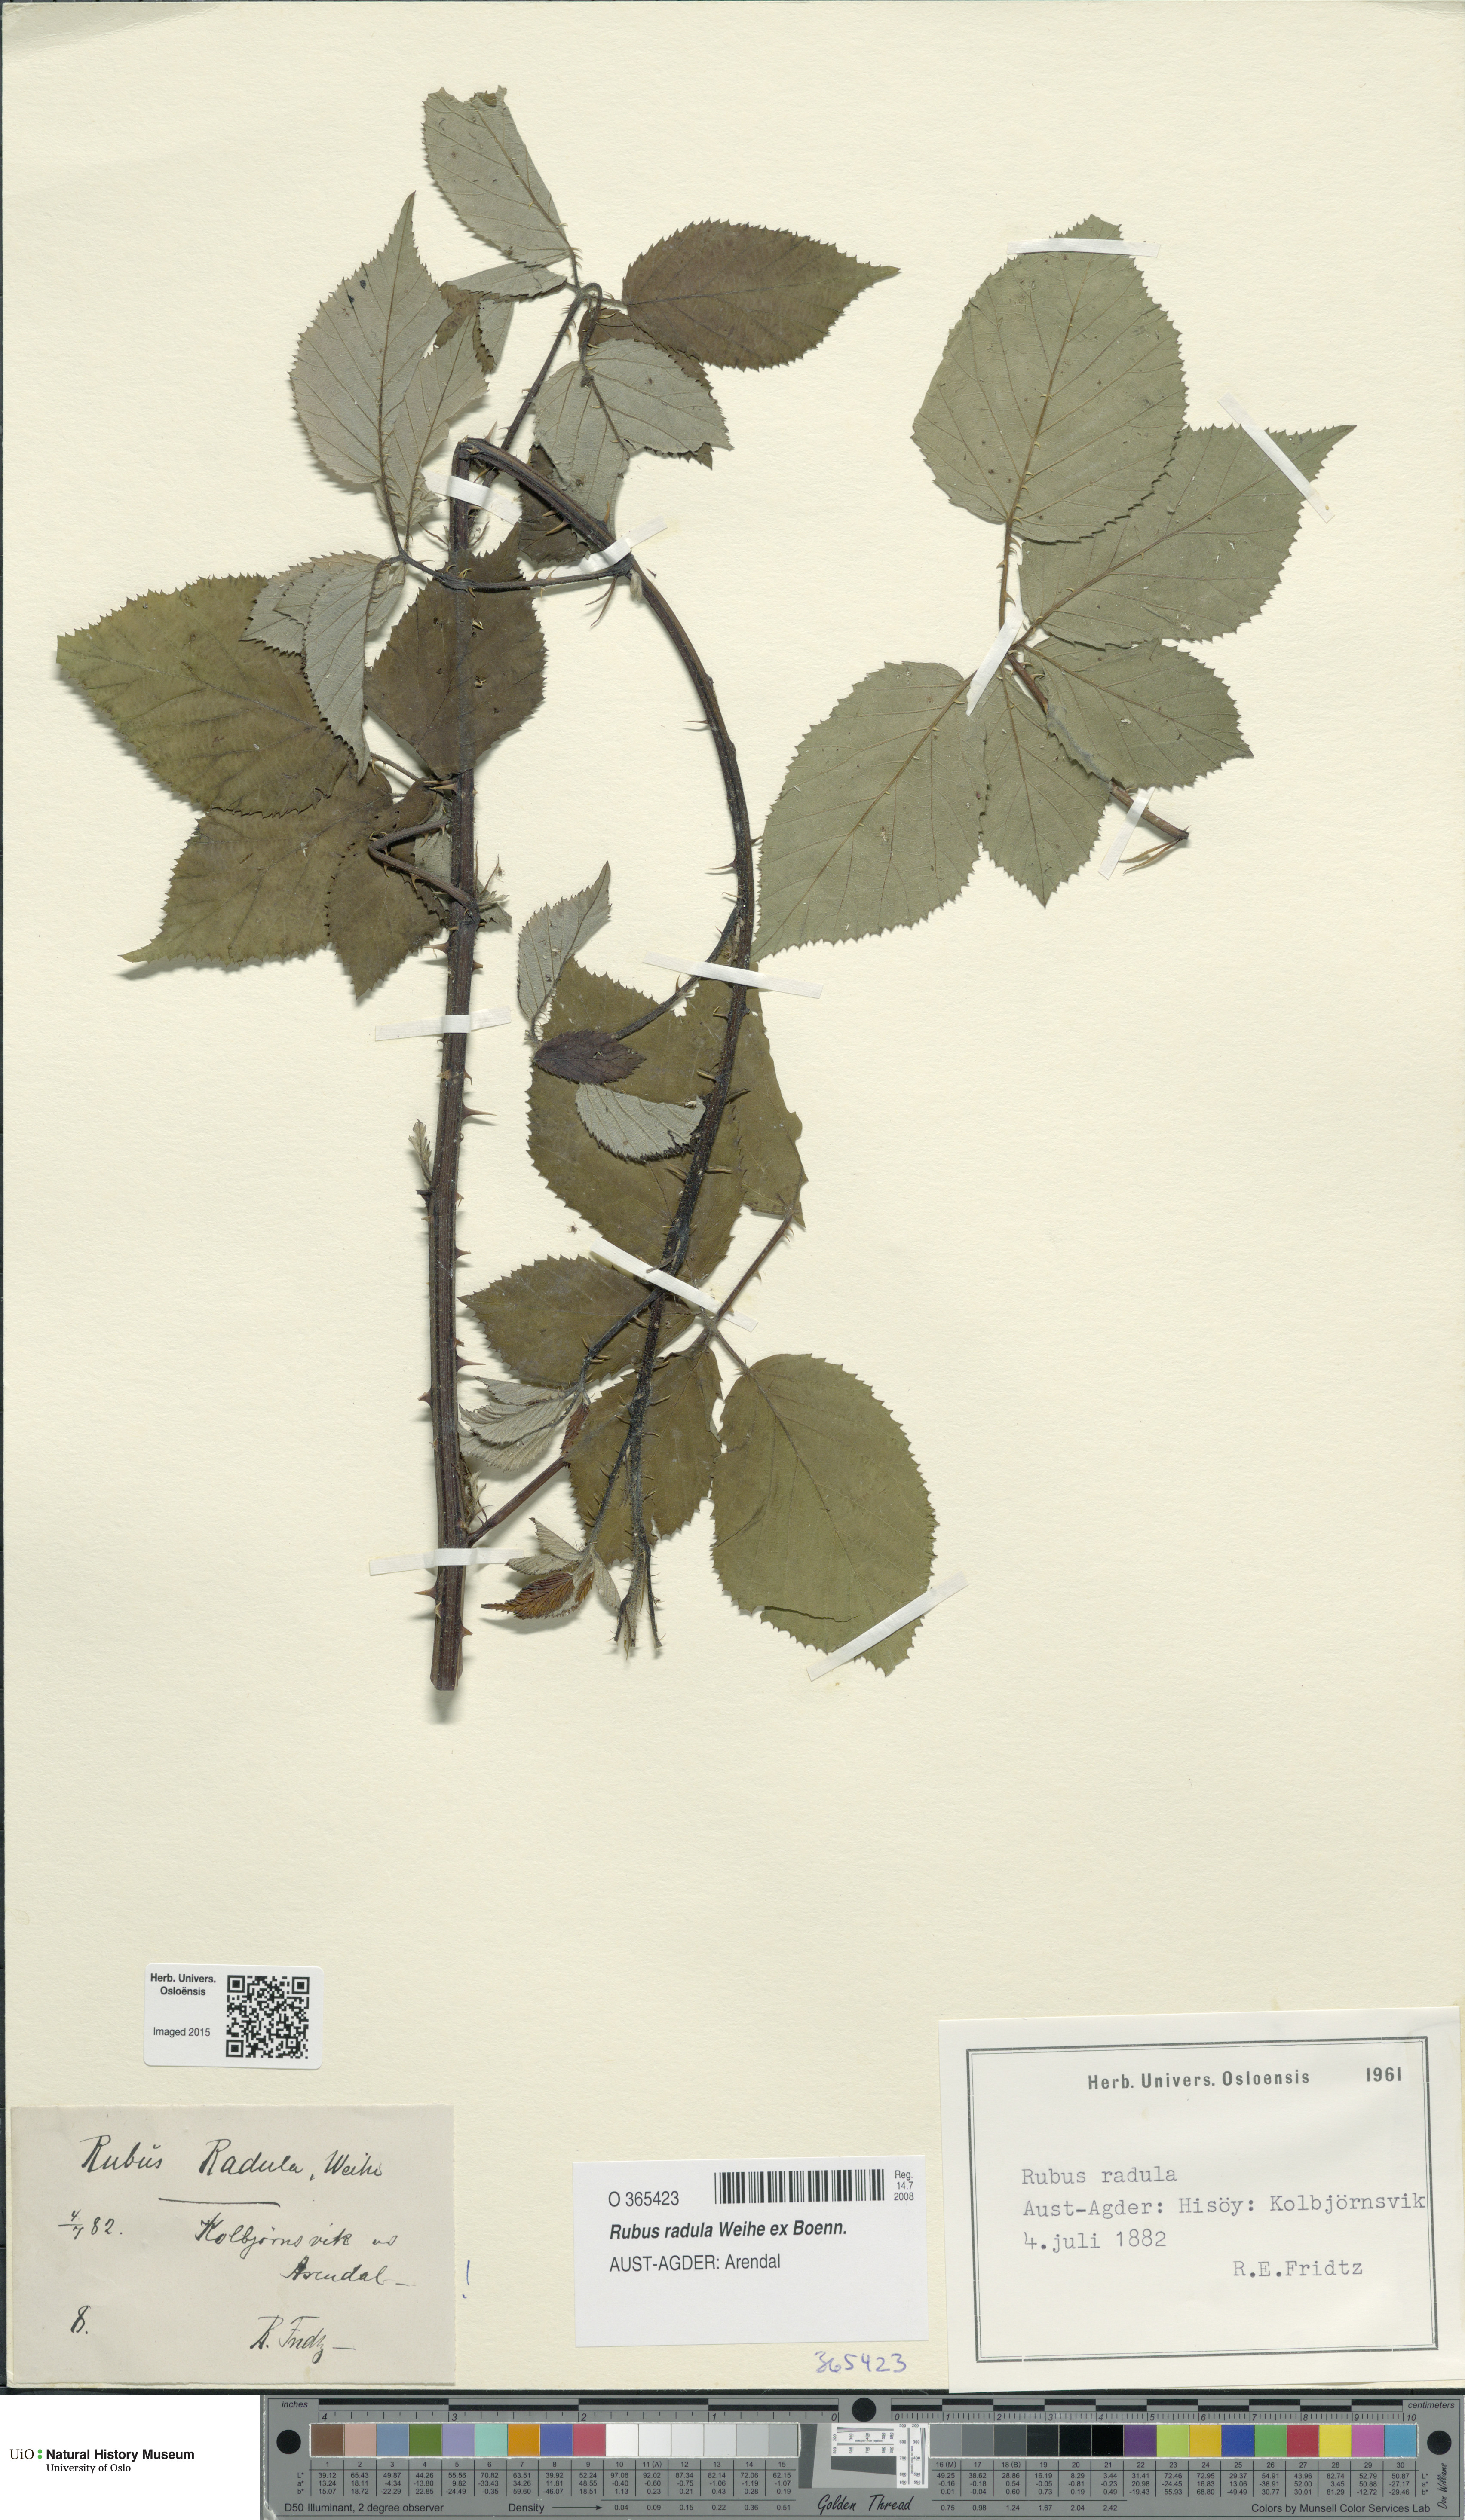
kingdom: Plantae
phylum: Tracheophyta
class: Magnoliopsida
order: Rosales
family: Rosaceae
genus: Rubus
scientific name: Rubus radula
